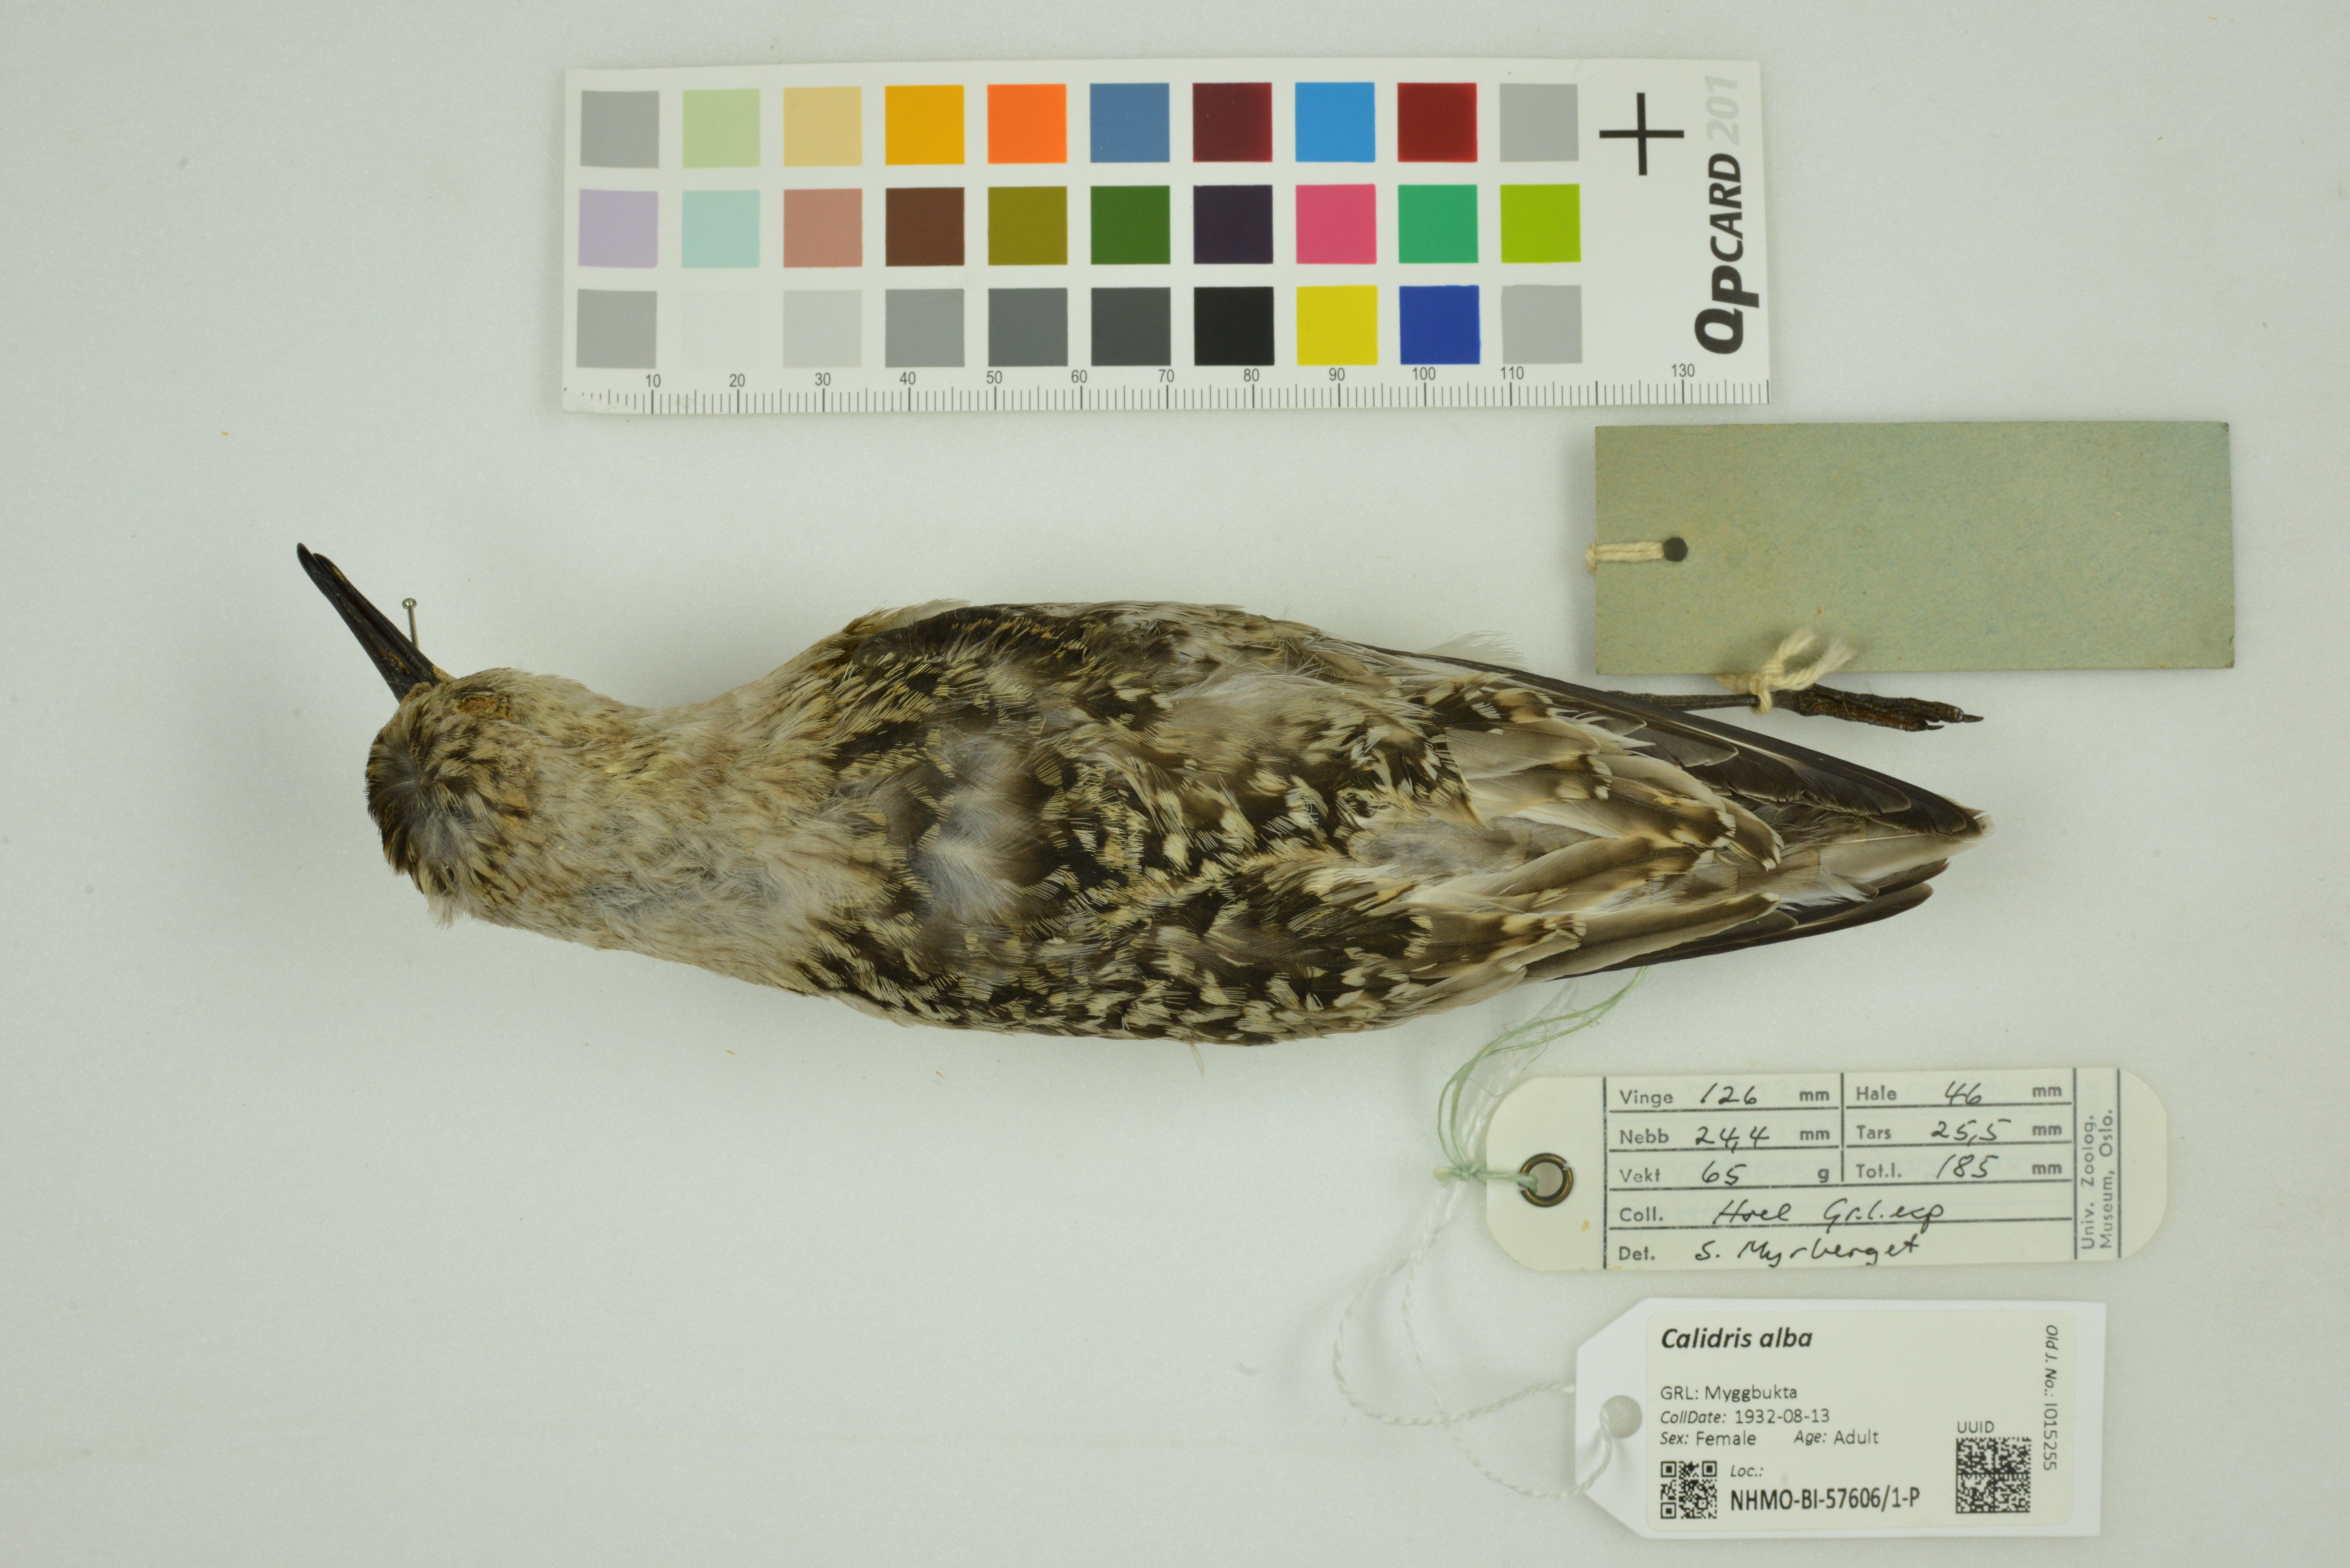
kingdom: Animalia
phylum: Chordata
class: Aves
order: Charadriiformes
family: Scolopacidae
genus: Calidris
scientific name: Calidris alba
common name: Sanderling
